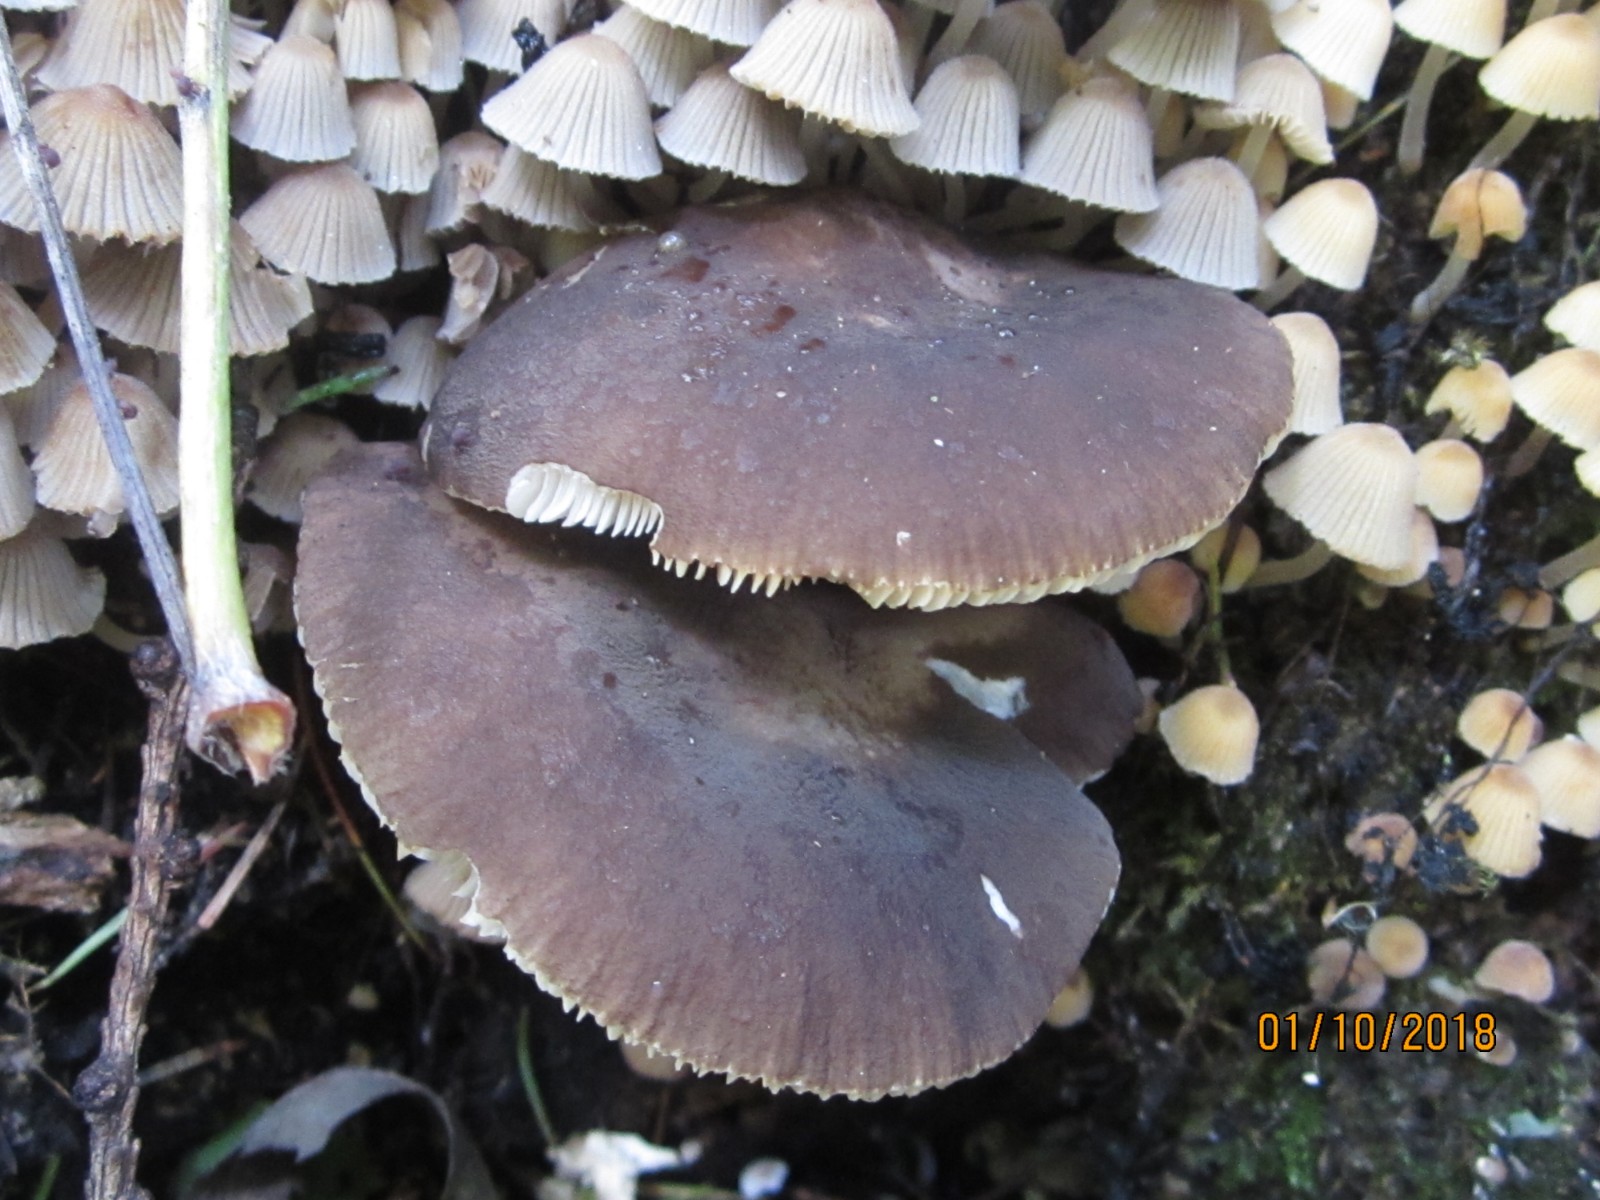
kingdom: Fungi
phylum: Basidiomycota
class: Agaricomycetes
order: Agaricales
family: Pluteaceae
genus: Pluteus
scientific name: Pluteus cervinus
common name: sodfarvet skærmhat
